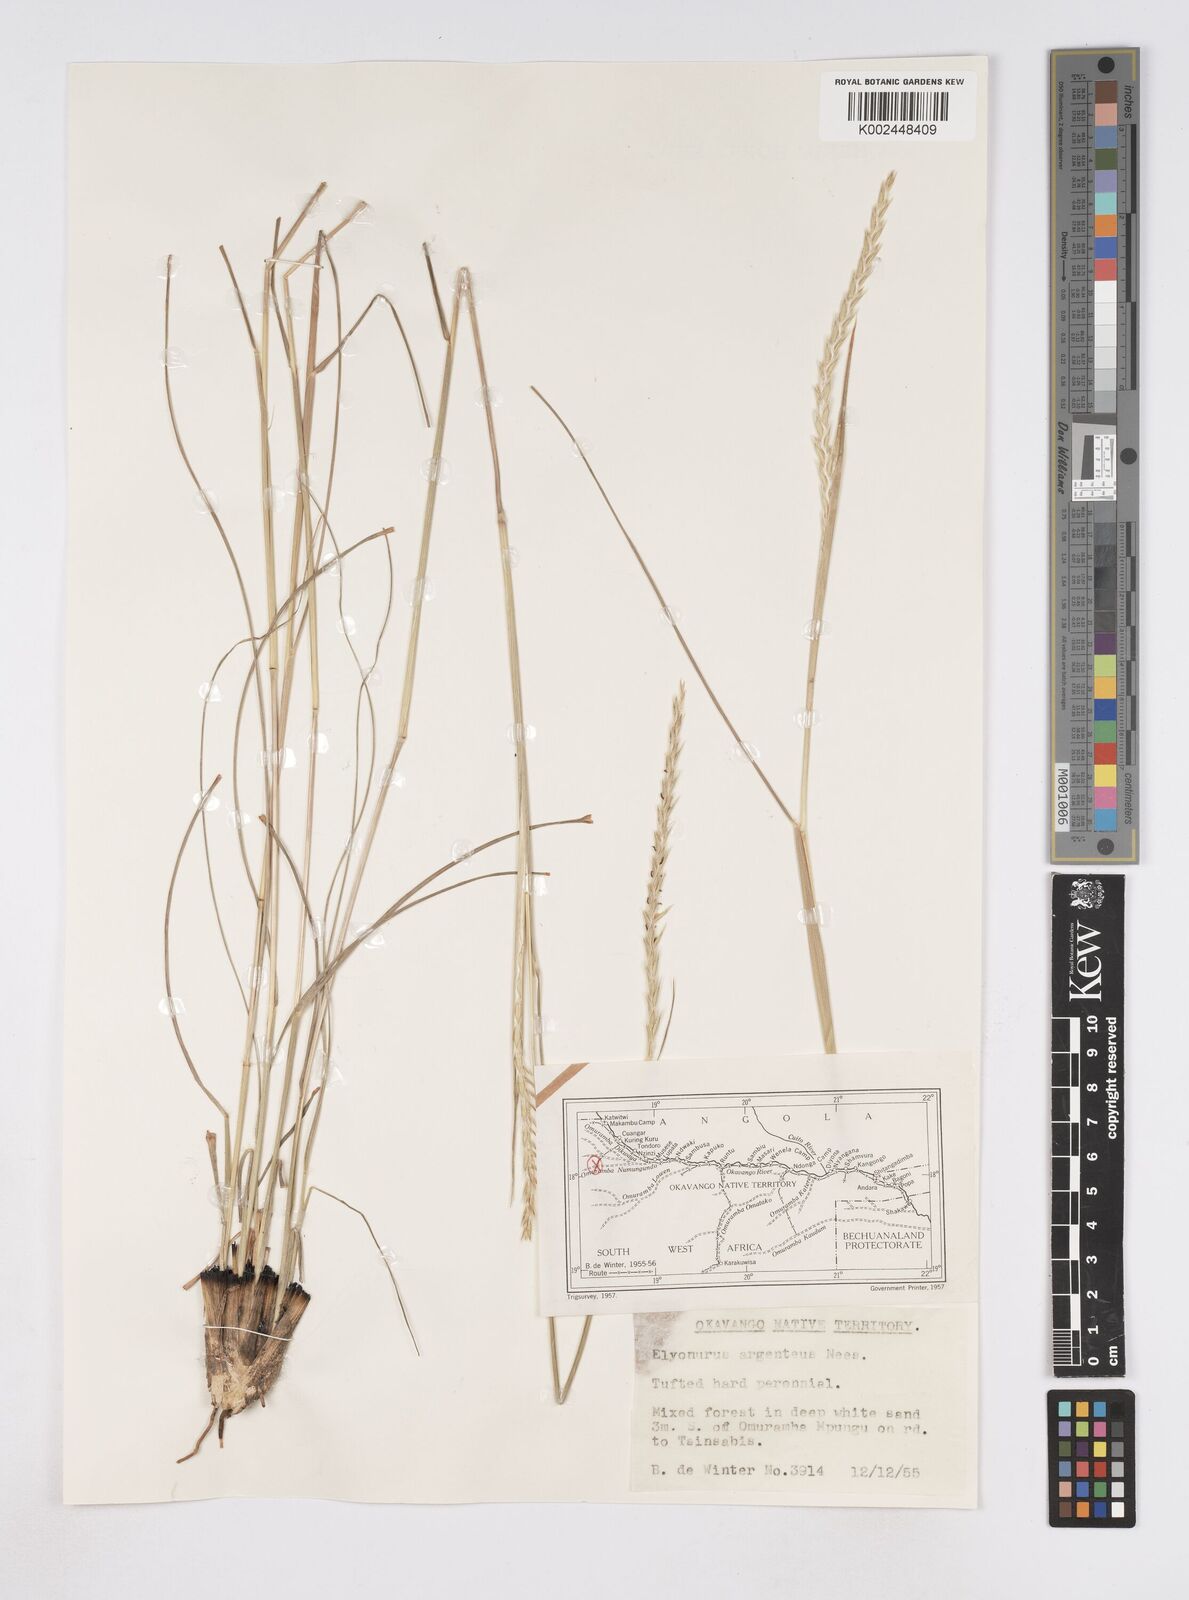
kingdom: Plantae
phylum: Tracheophyta
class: Liliopsida
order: Poales
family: Poaceae
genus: Elionurus
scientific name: Elionurus tripsacoides
